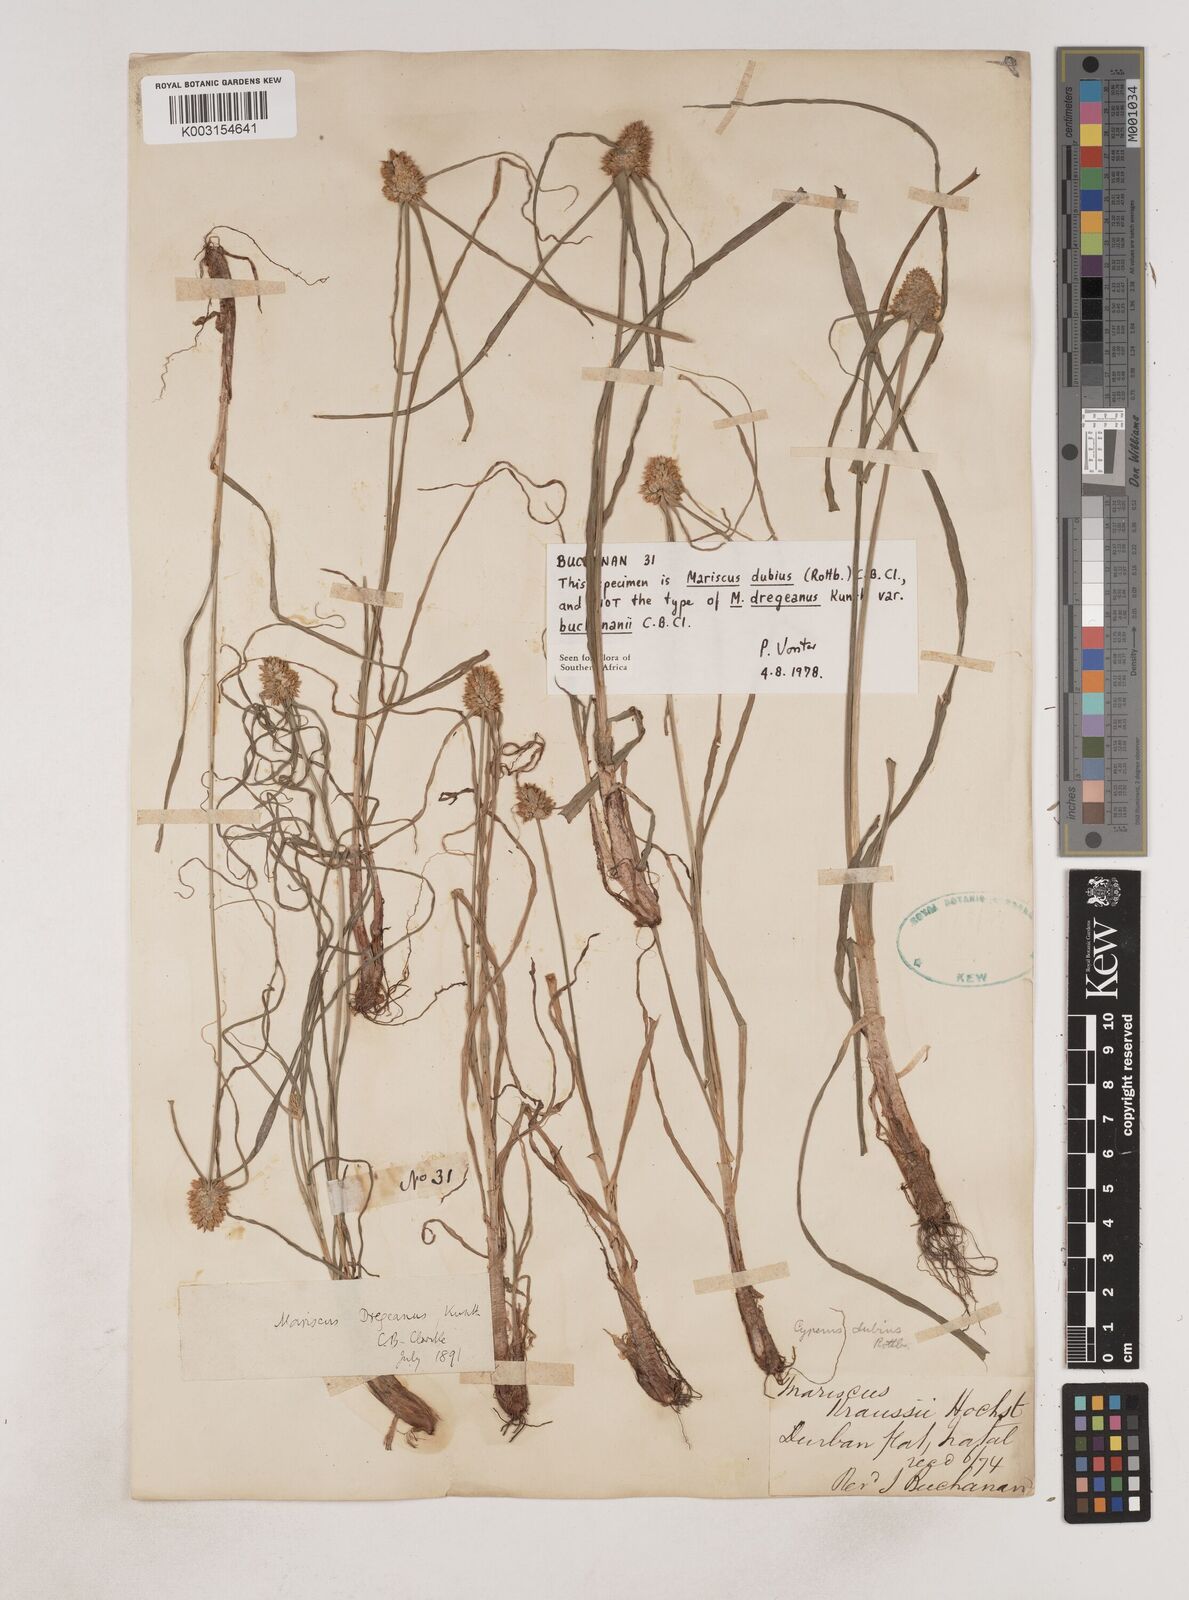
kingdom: Plantae
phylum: Tracheophyta
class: Liliopsida
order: Poales
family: Cyperaceae
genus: Cyperus
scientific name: Cyperus dubius
